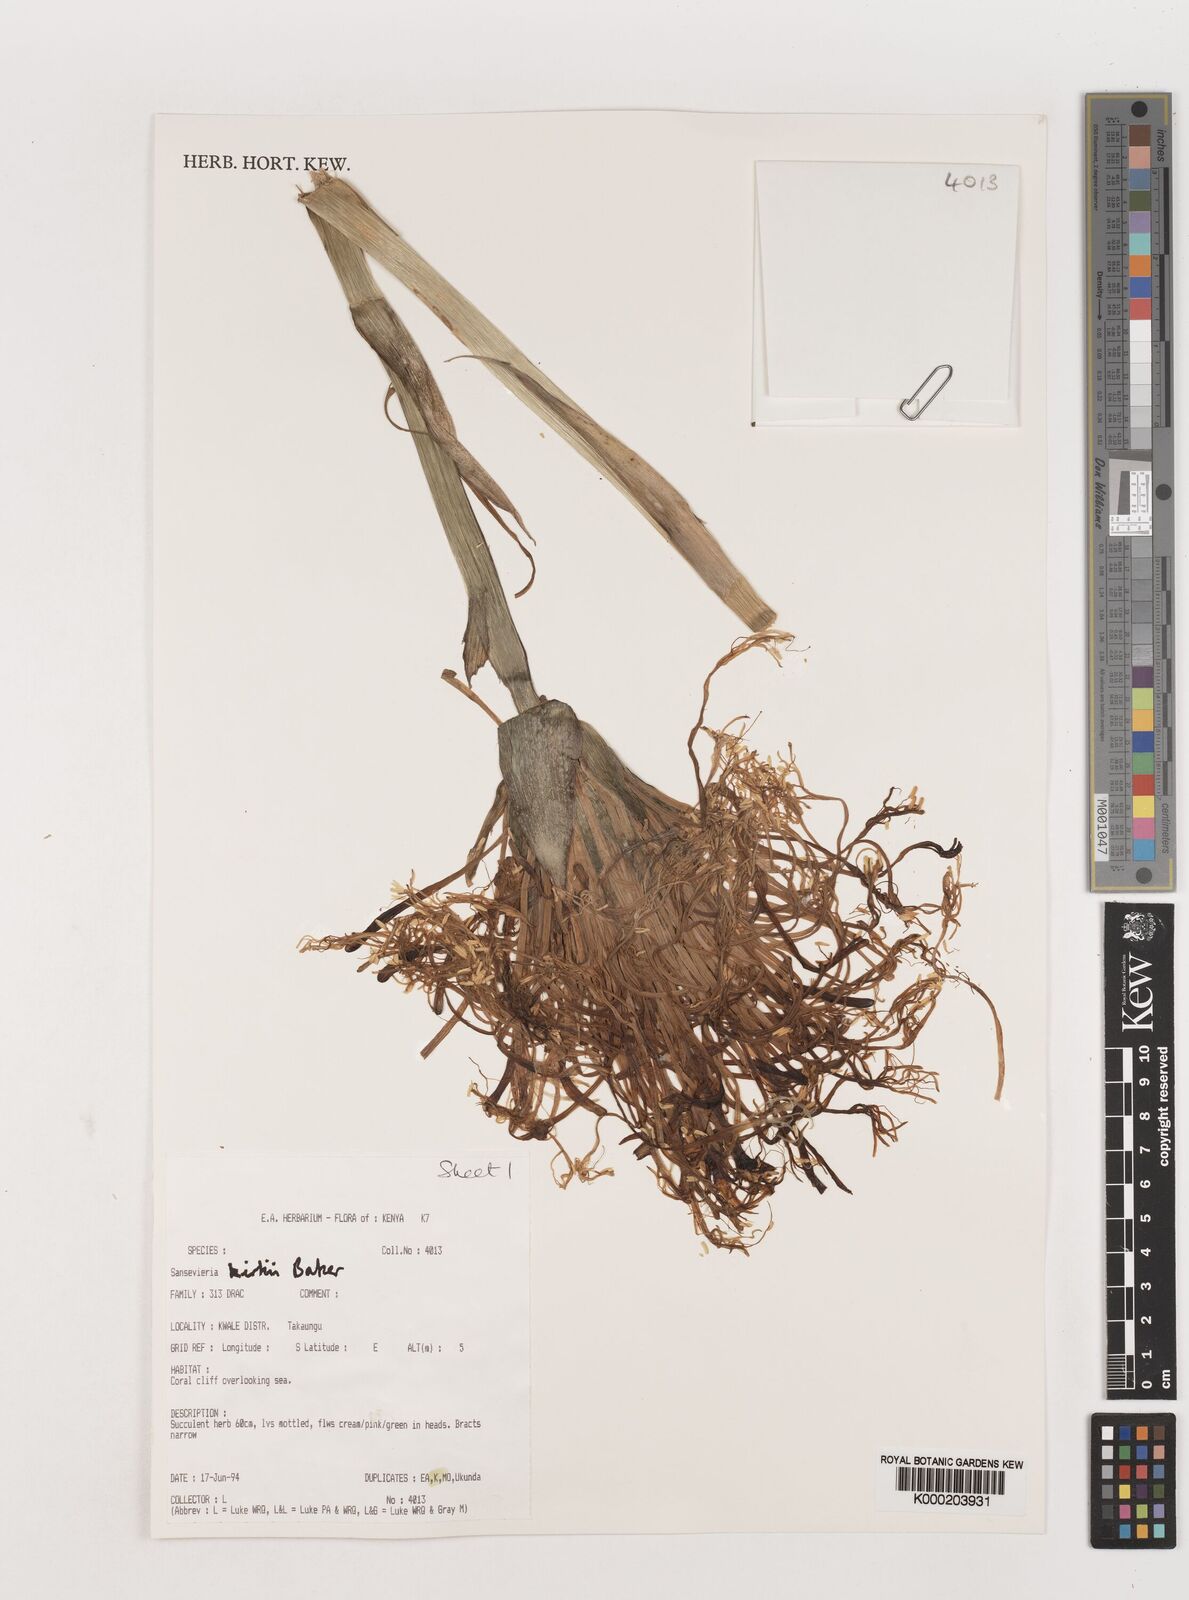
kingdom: Plantae
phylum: Tracheophyta
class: Liliopsida
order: Asparagales
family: Asparagaceae
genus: Dracaena
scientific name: Dracaena pethera
